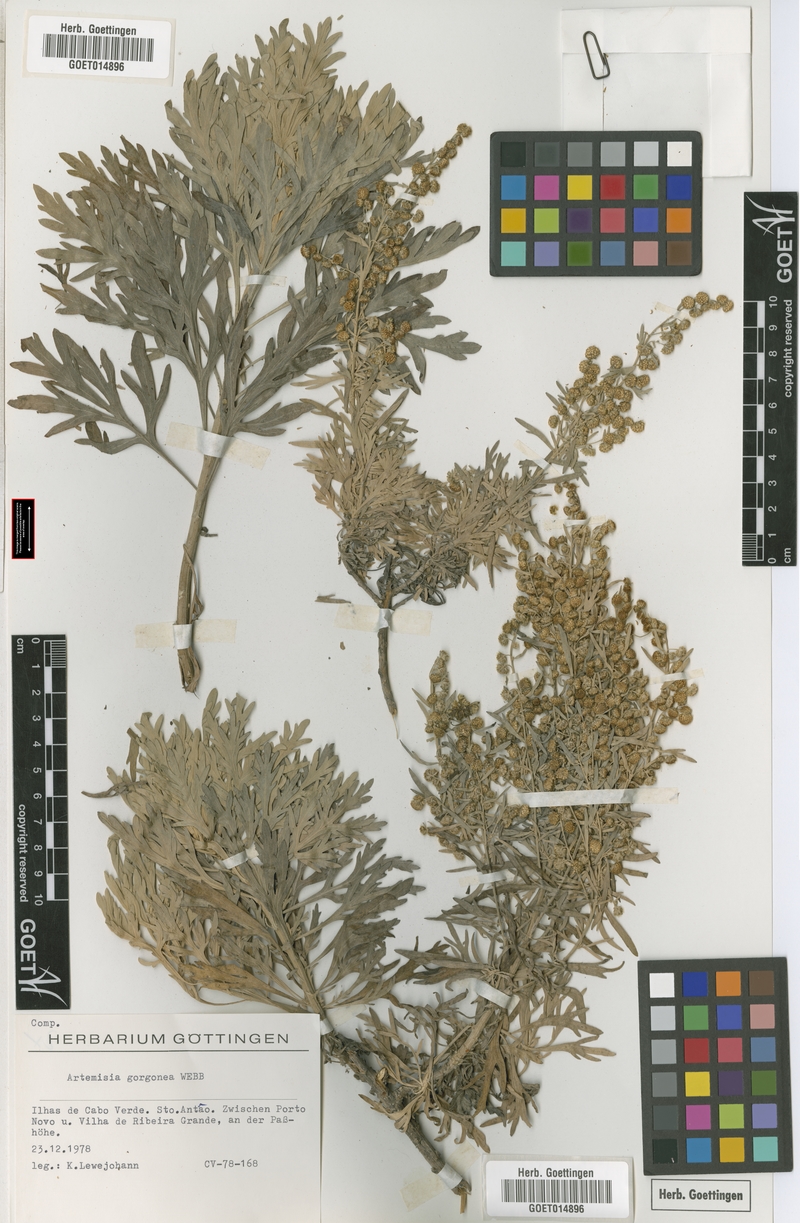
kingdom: Plantae
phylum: Tracheophyta
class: Magnoliopsida
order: Asterales
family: Asteraceae
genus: Artemisia
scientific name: Artemisia gorgonum
